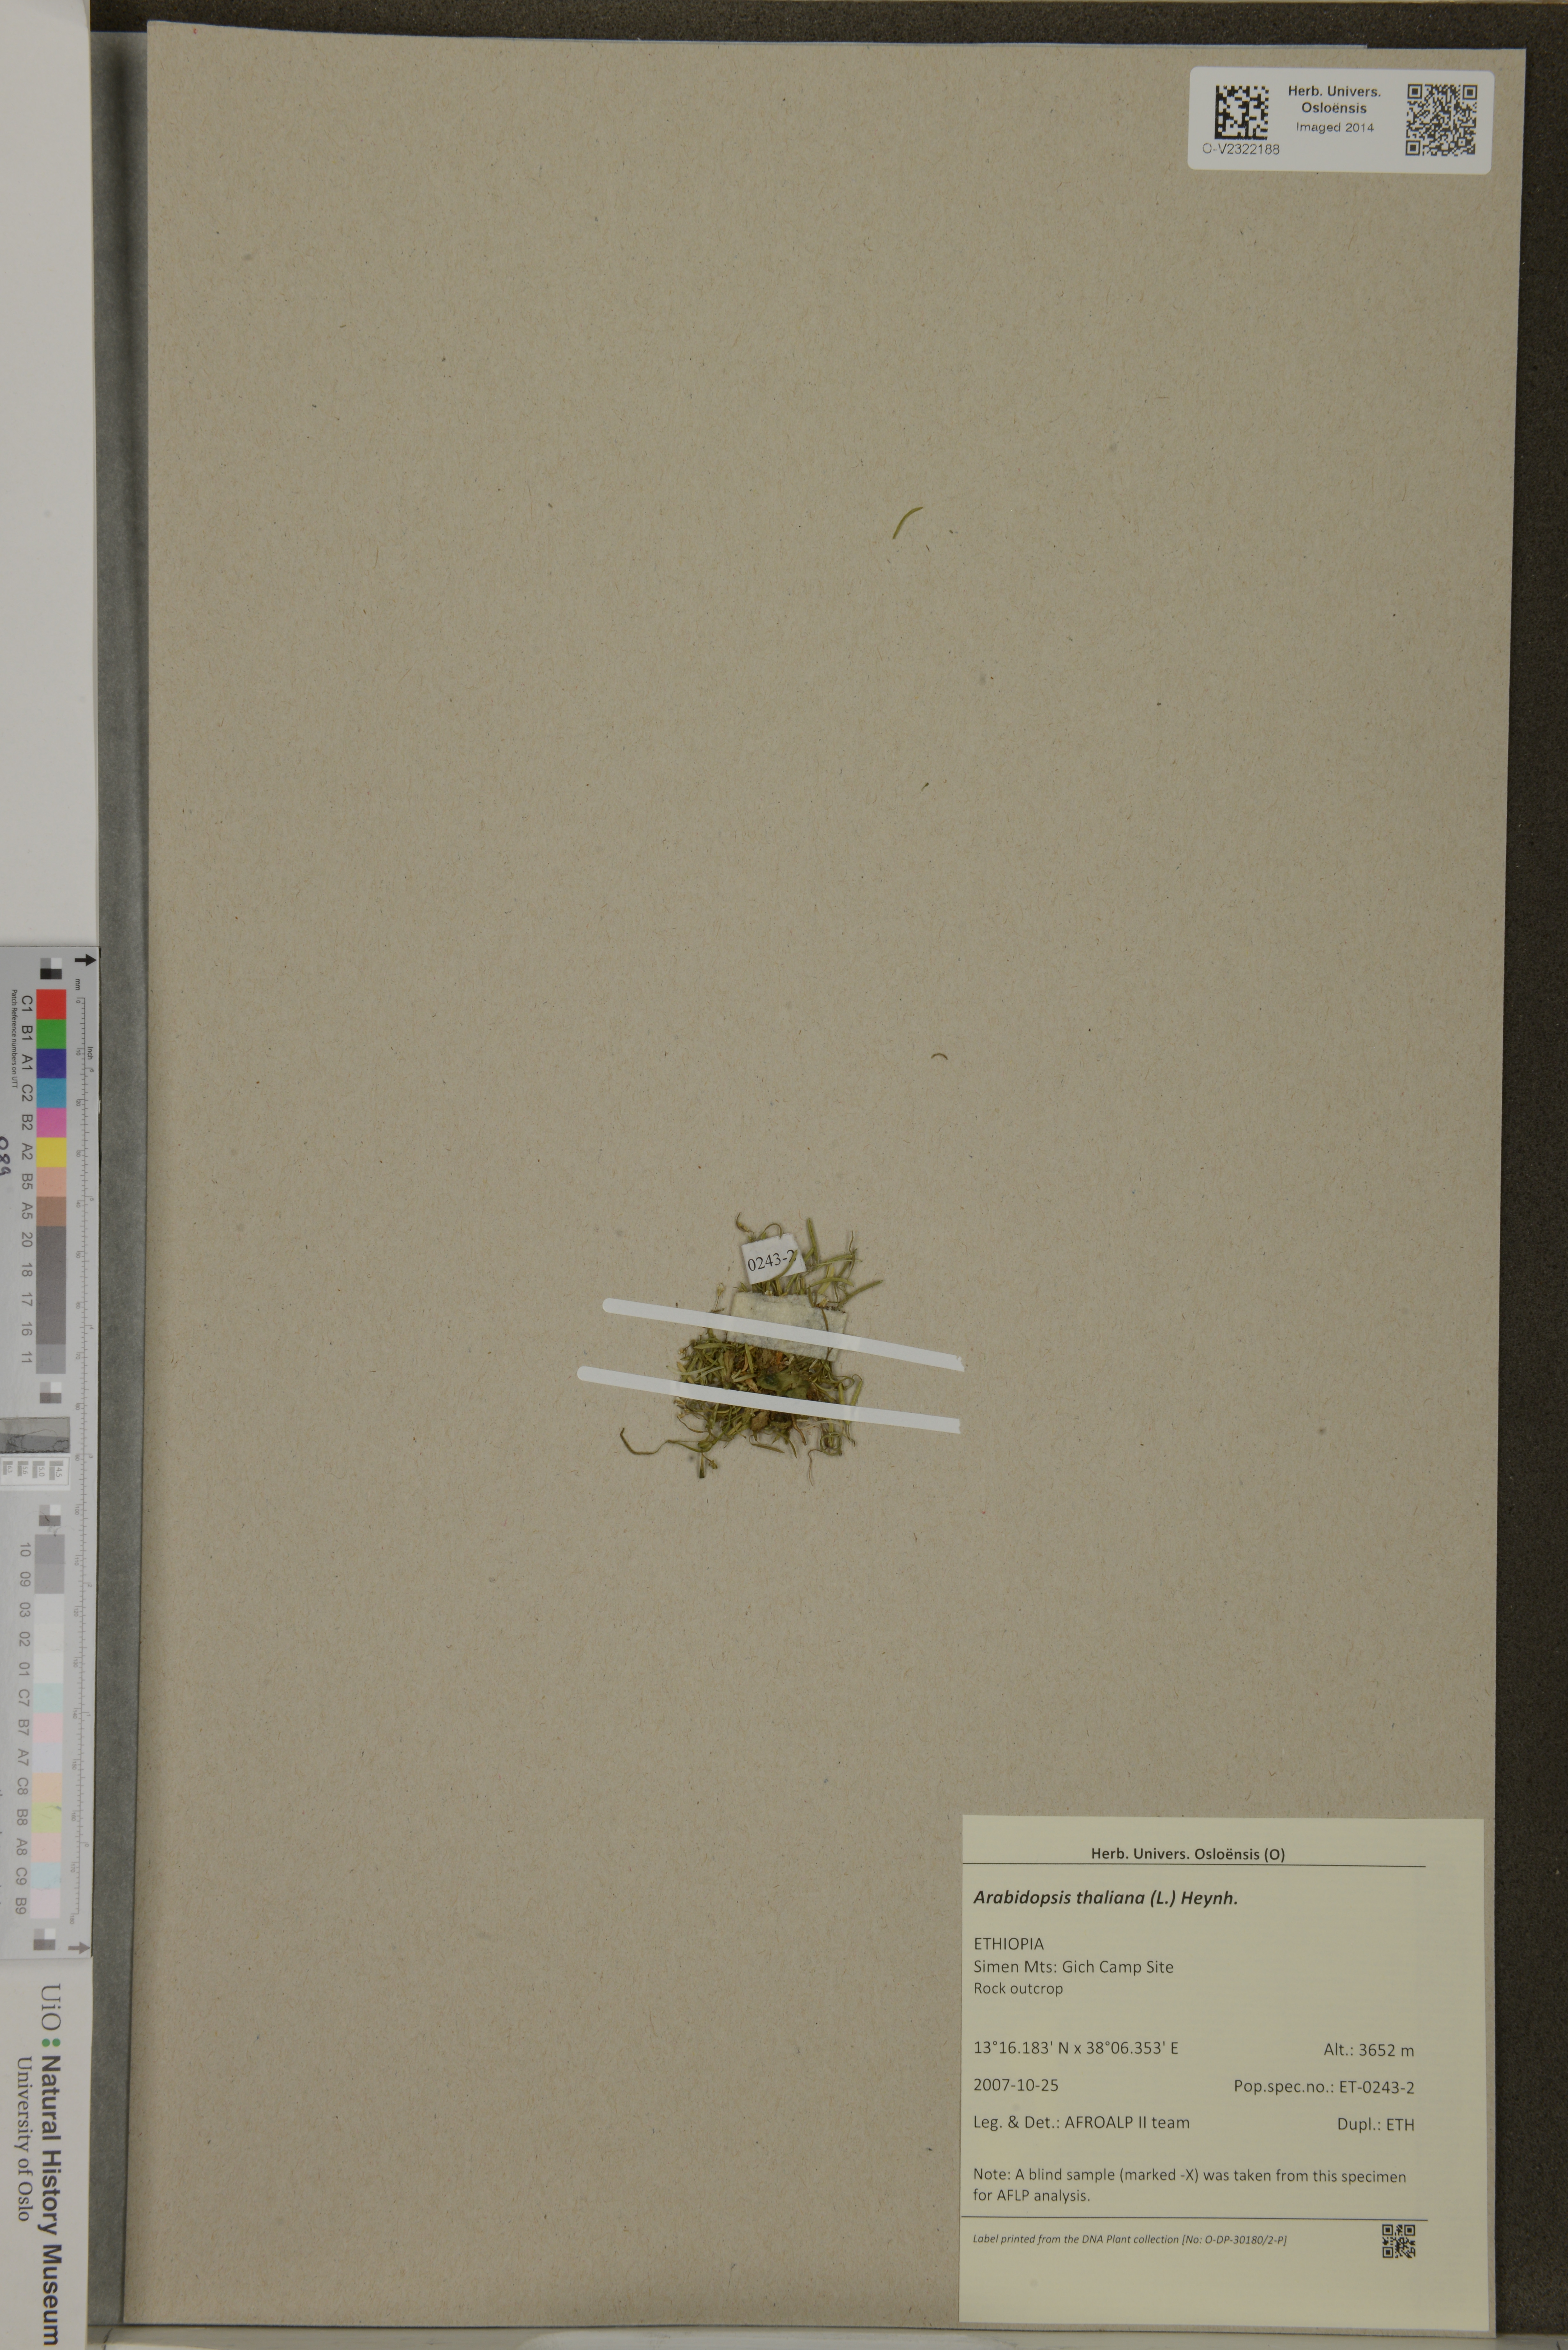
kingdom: Plantae
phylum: Tracheophyta
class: Magnoliopsida
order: Brassicales
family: Brassicaceae
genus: Arabidopsis
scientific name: Arabidopsis thaliana
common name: Thale cress
